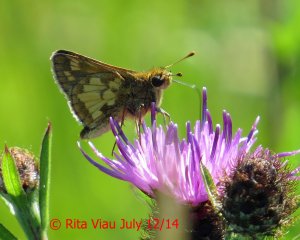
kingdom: Animalia
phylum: Arthropoda
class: Insecta
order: Lepidoptera
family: Hesperiidae
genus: Polites
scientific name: Polites coras
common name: Peck's Skipper
